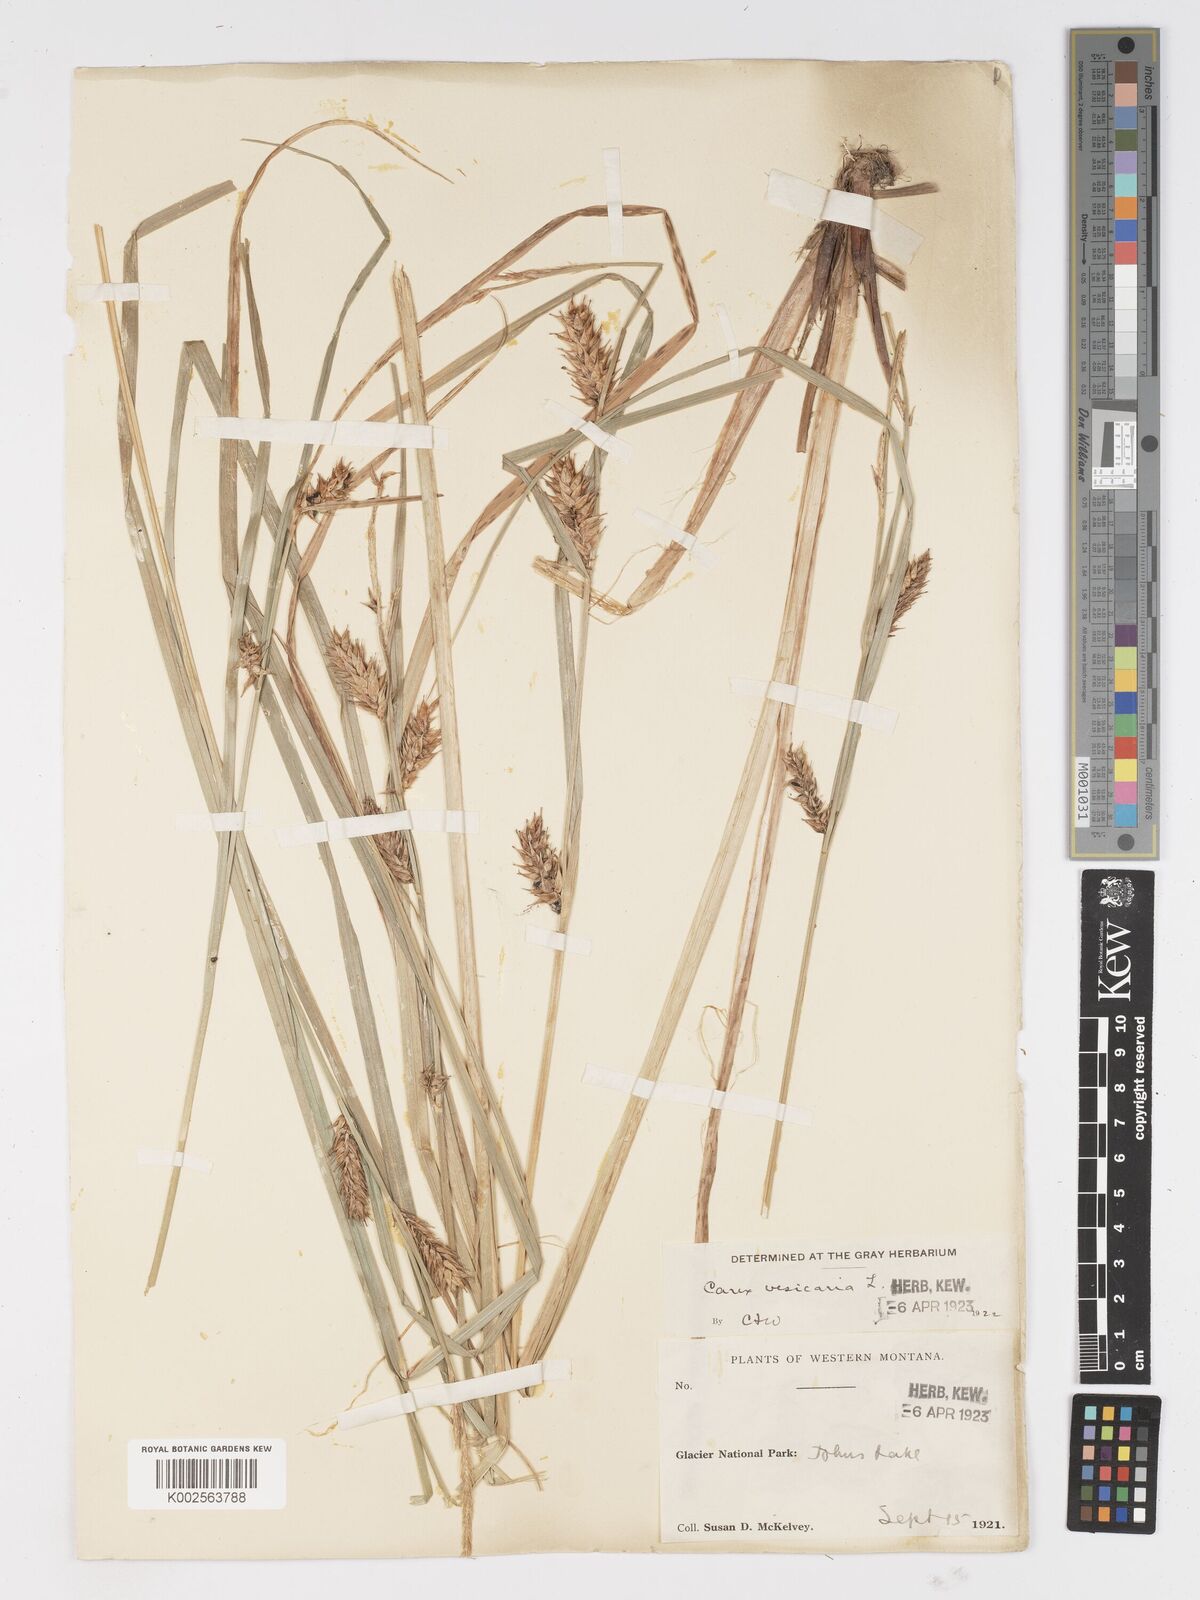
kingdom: Plantae
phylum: Tracheophyta
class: Liliopsida
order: Poales
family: Cyperaceae
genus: Carex
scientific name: Carex vesicaria
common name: Bladder-sedge
